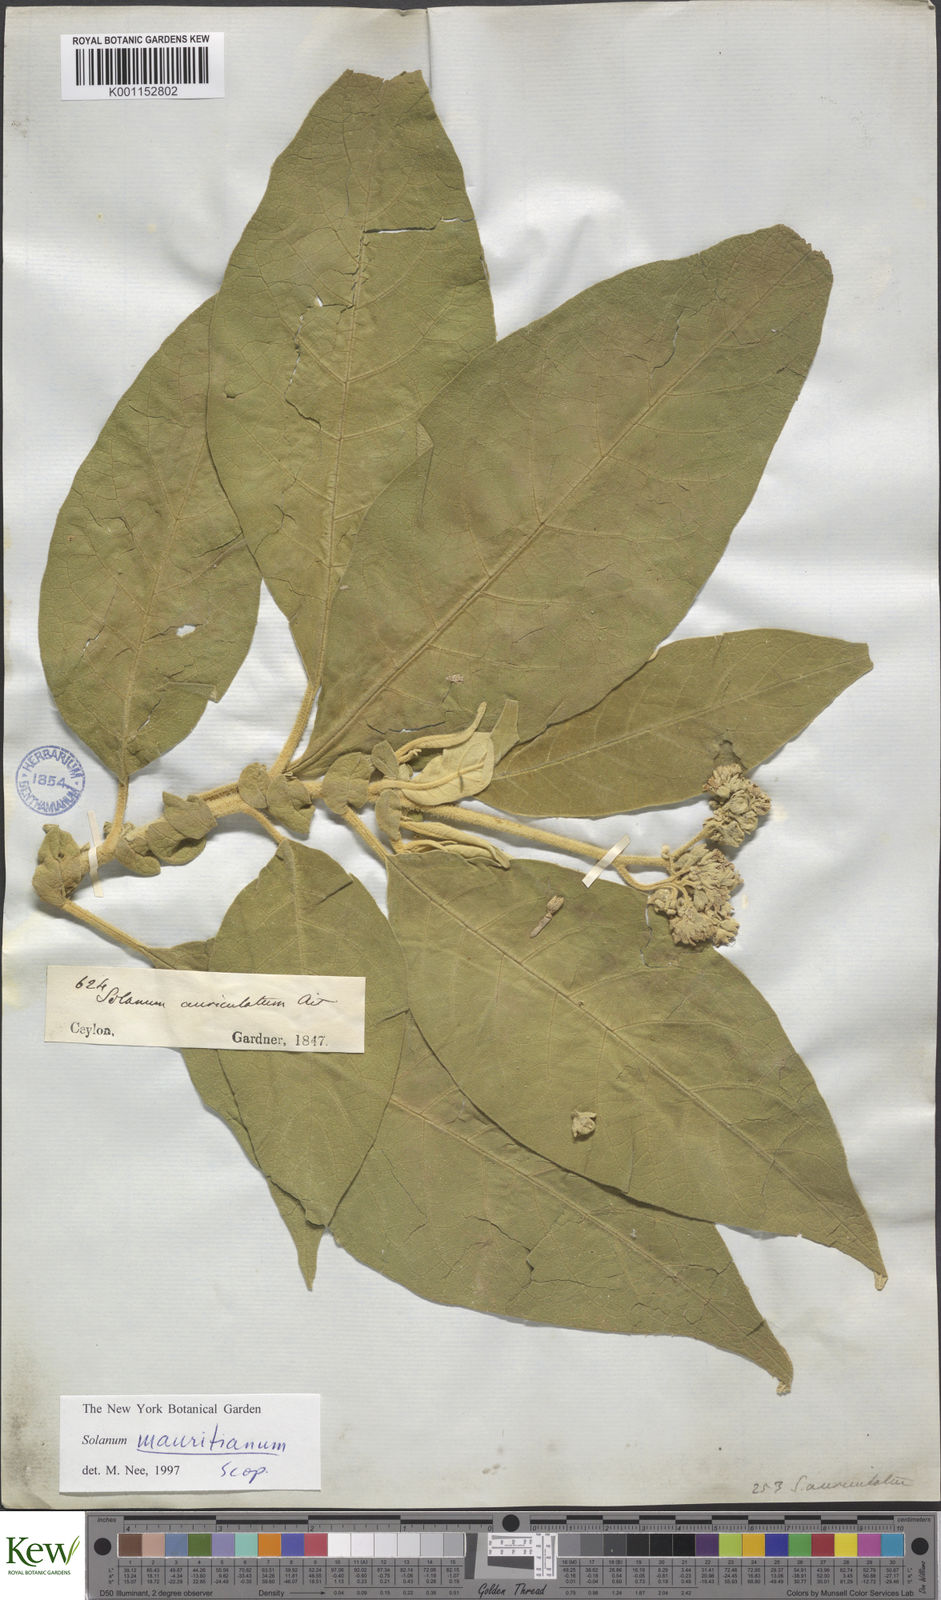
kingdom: Plantae
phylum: Tracheophyta
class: Magnoliopsida
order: Solanales
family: Solanaceae
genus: Solanum
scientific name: Solanum mauritianum
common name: Earleaf nightshade
